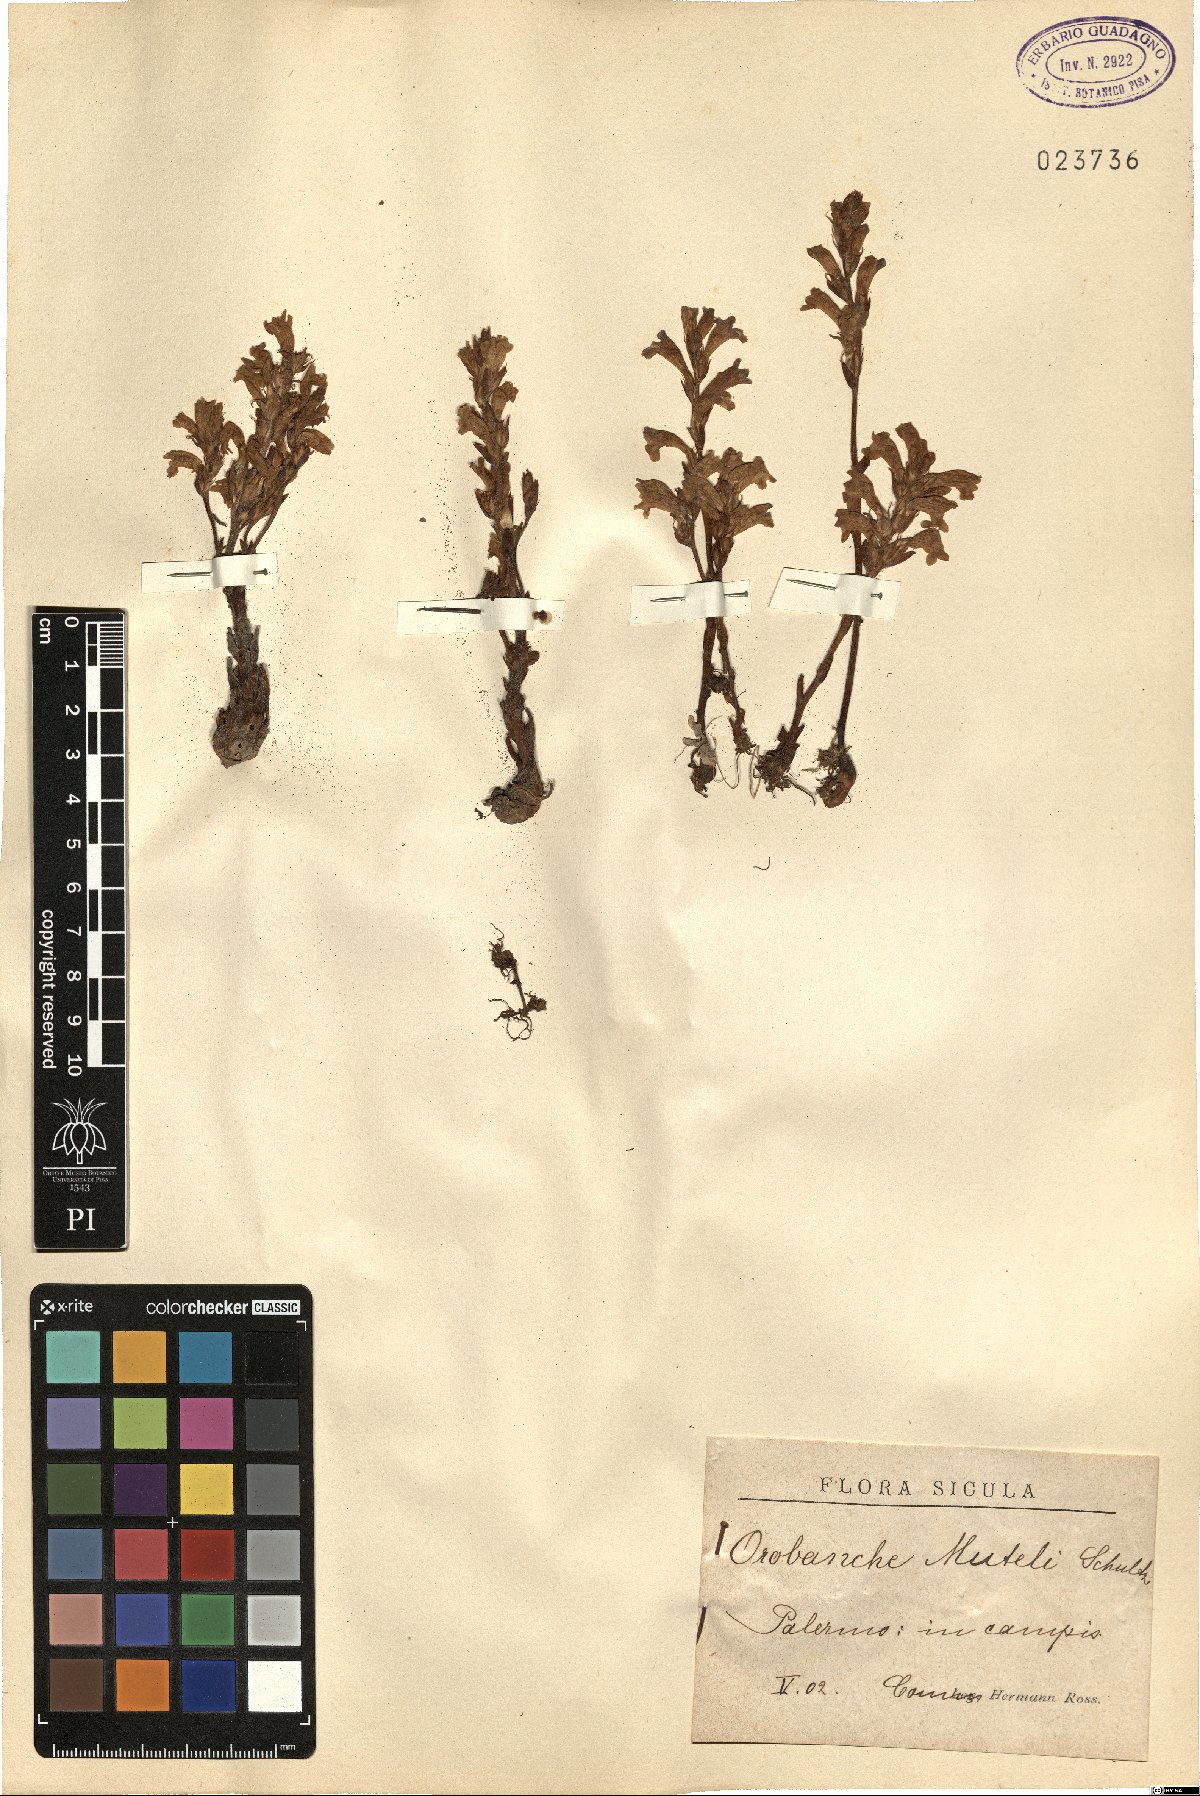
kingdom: Plantae
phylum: Tracheophyta
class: Magnoliopsida
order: Lamiales
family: Orobanchaceae
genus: Phelipanche
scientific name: Phelipanche mutelii
